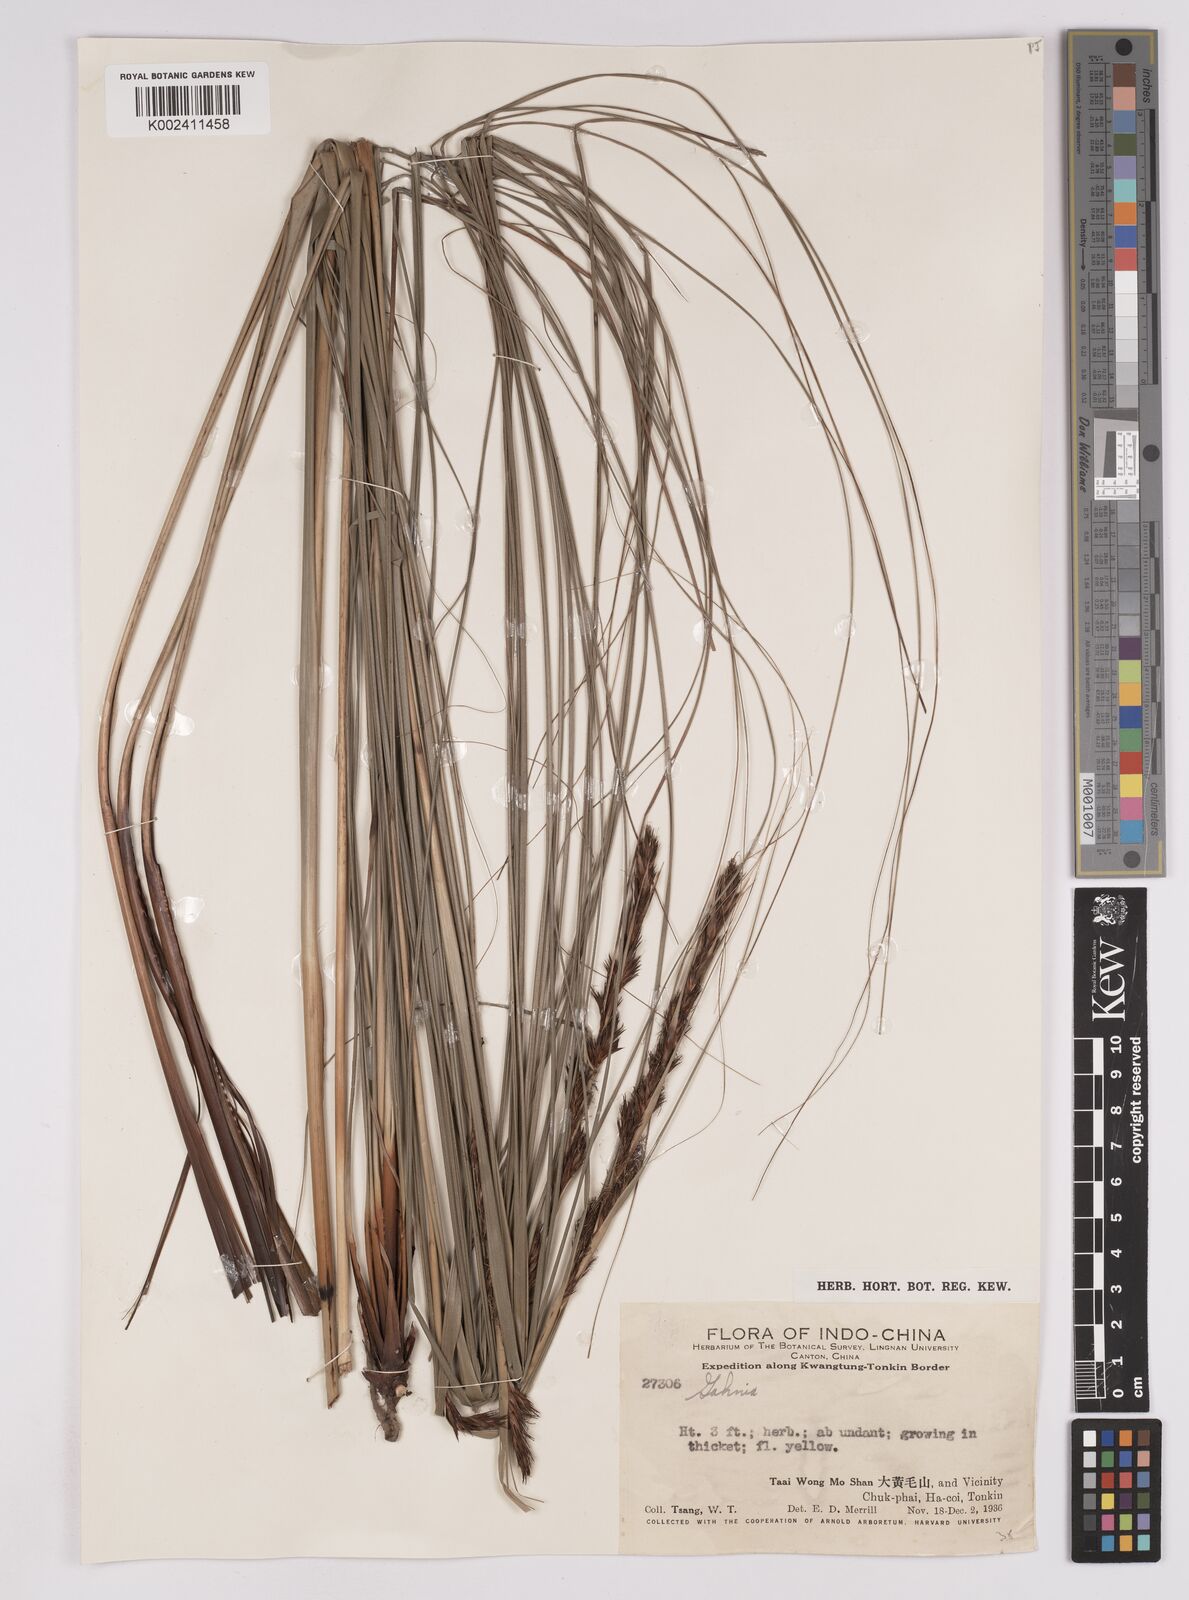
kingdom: Plantae
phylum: Tracheophyta
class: Liliopsida
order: Poales
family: Cyperaceae
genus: Gahnia
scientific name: Gahnia tristis
